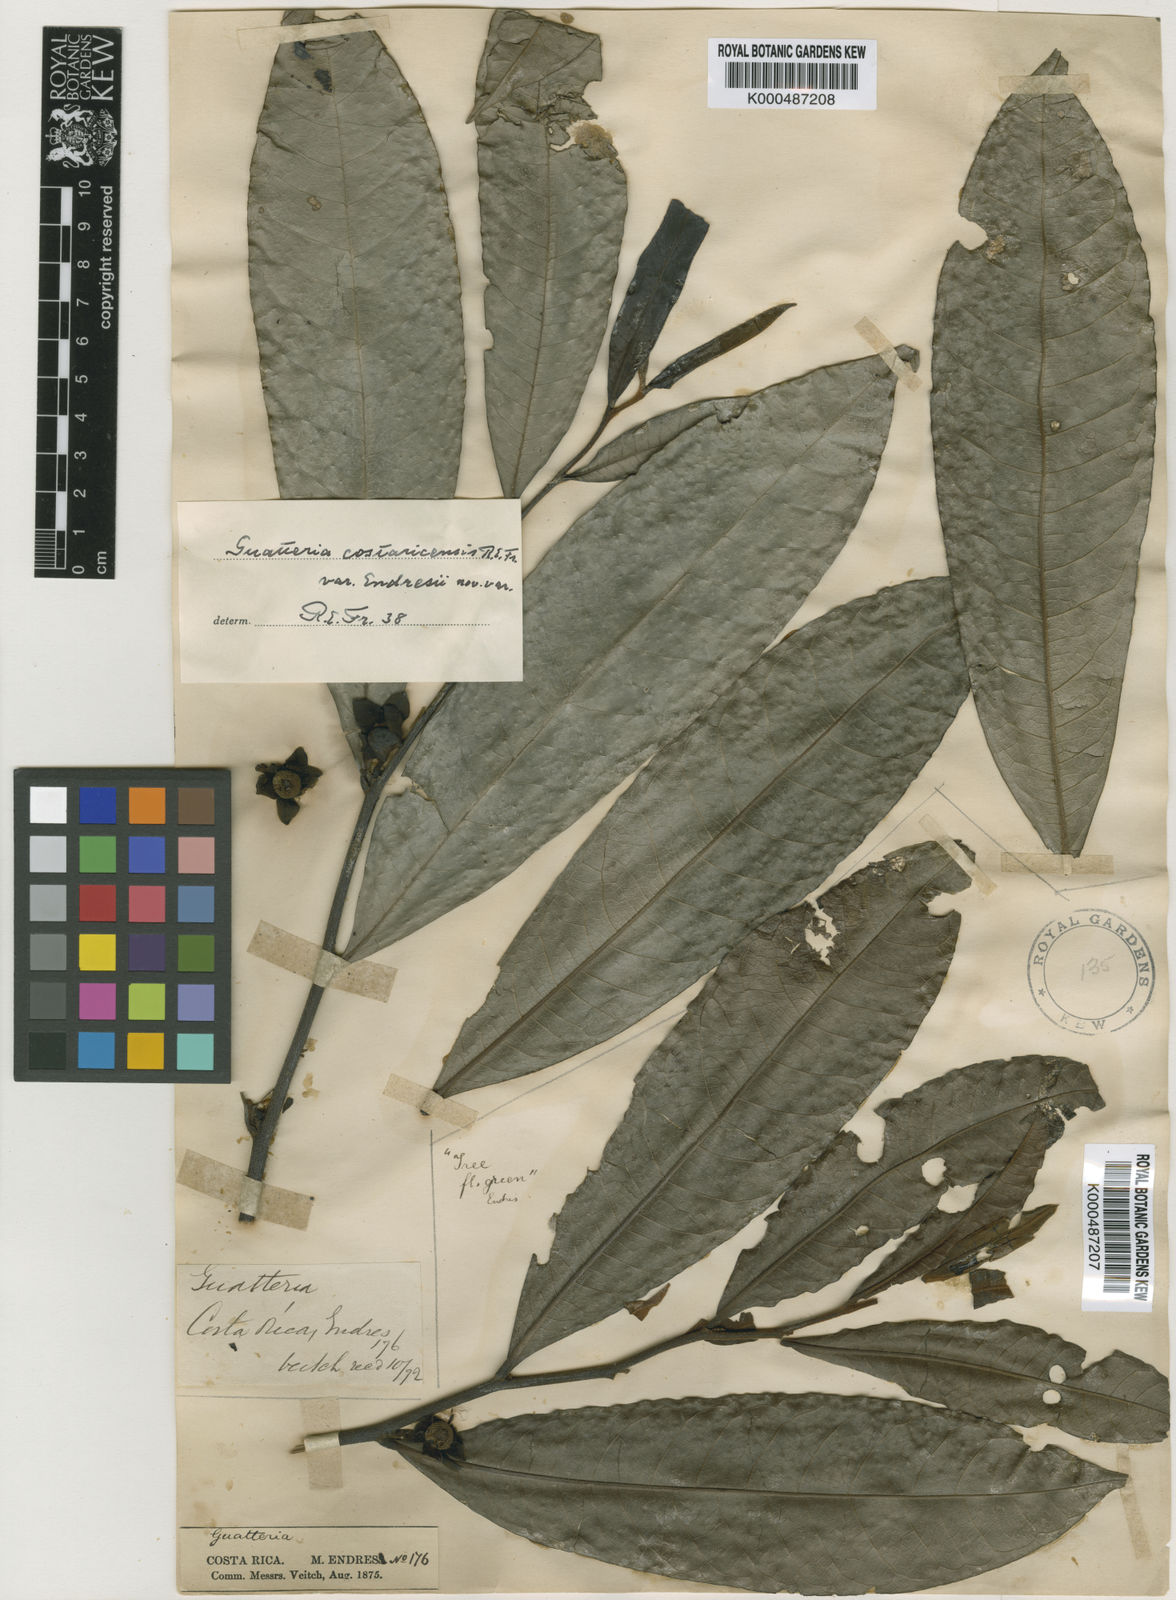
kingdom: Plantae
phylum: Tracheophyta
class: Magnoliopsida
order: Magnoliales
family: Annonaceae
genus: Guatteria
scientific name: Guatteria costaricensis
